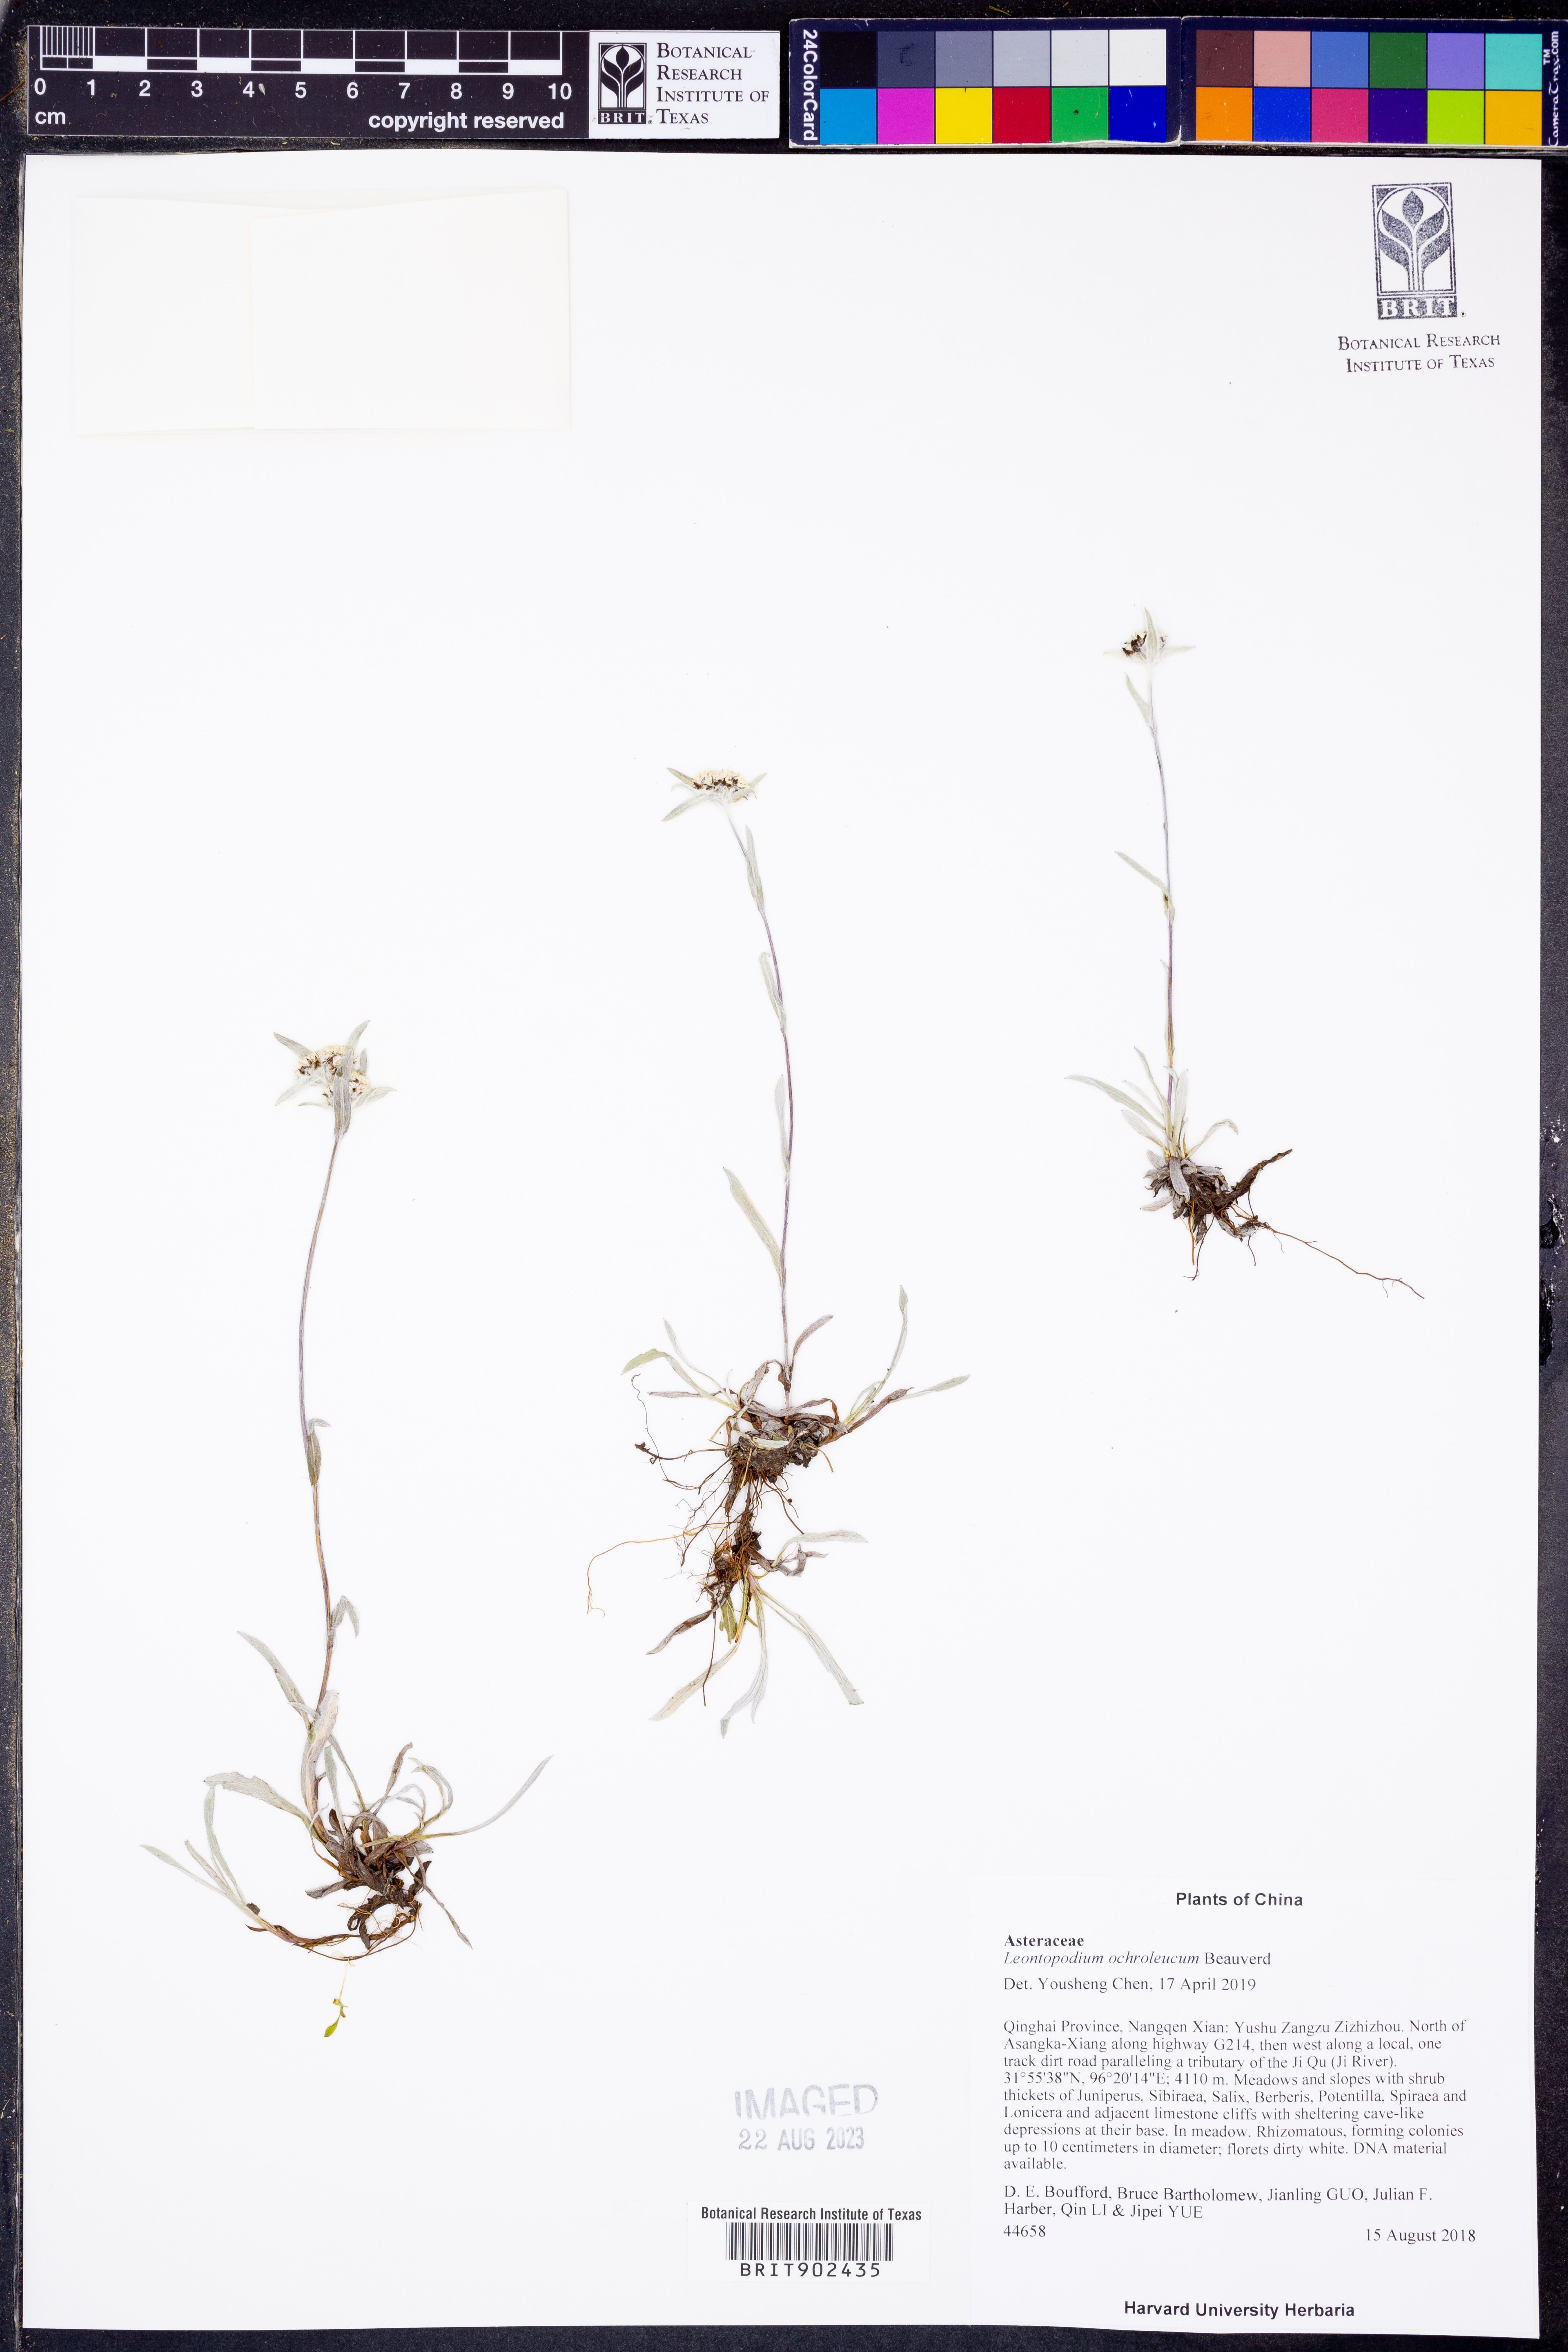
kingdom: Plantae
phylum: Tracheophyta
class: Magnoliopsida
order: Asterales
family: Asteraceae
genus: Leontopodium
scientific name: Leontopodium leontopodinum
